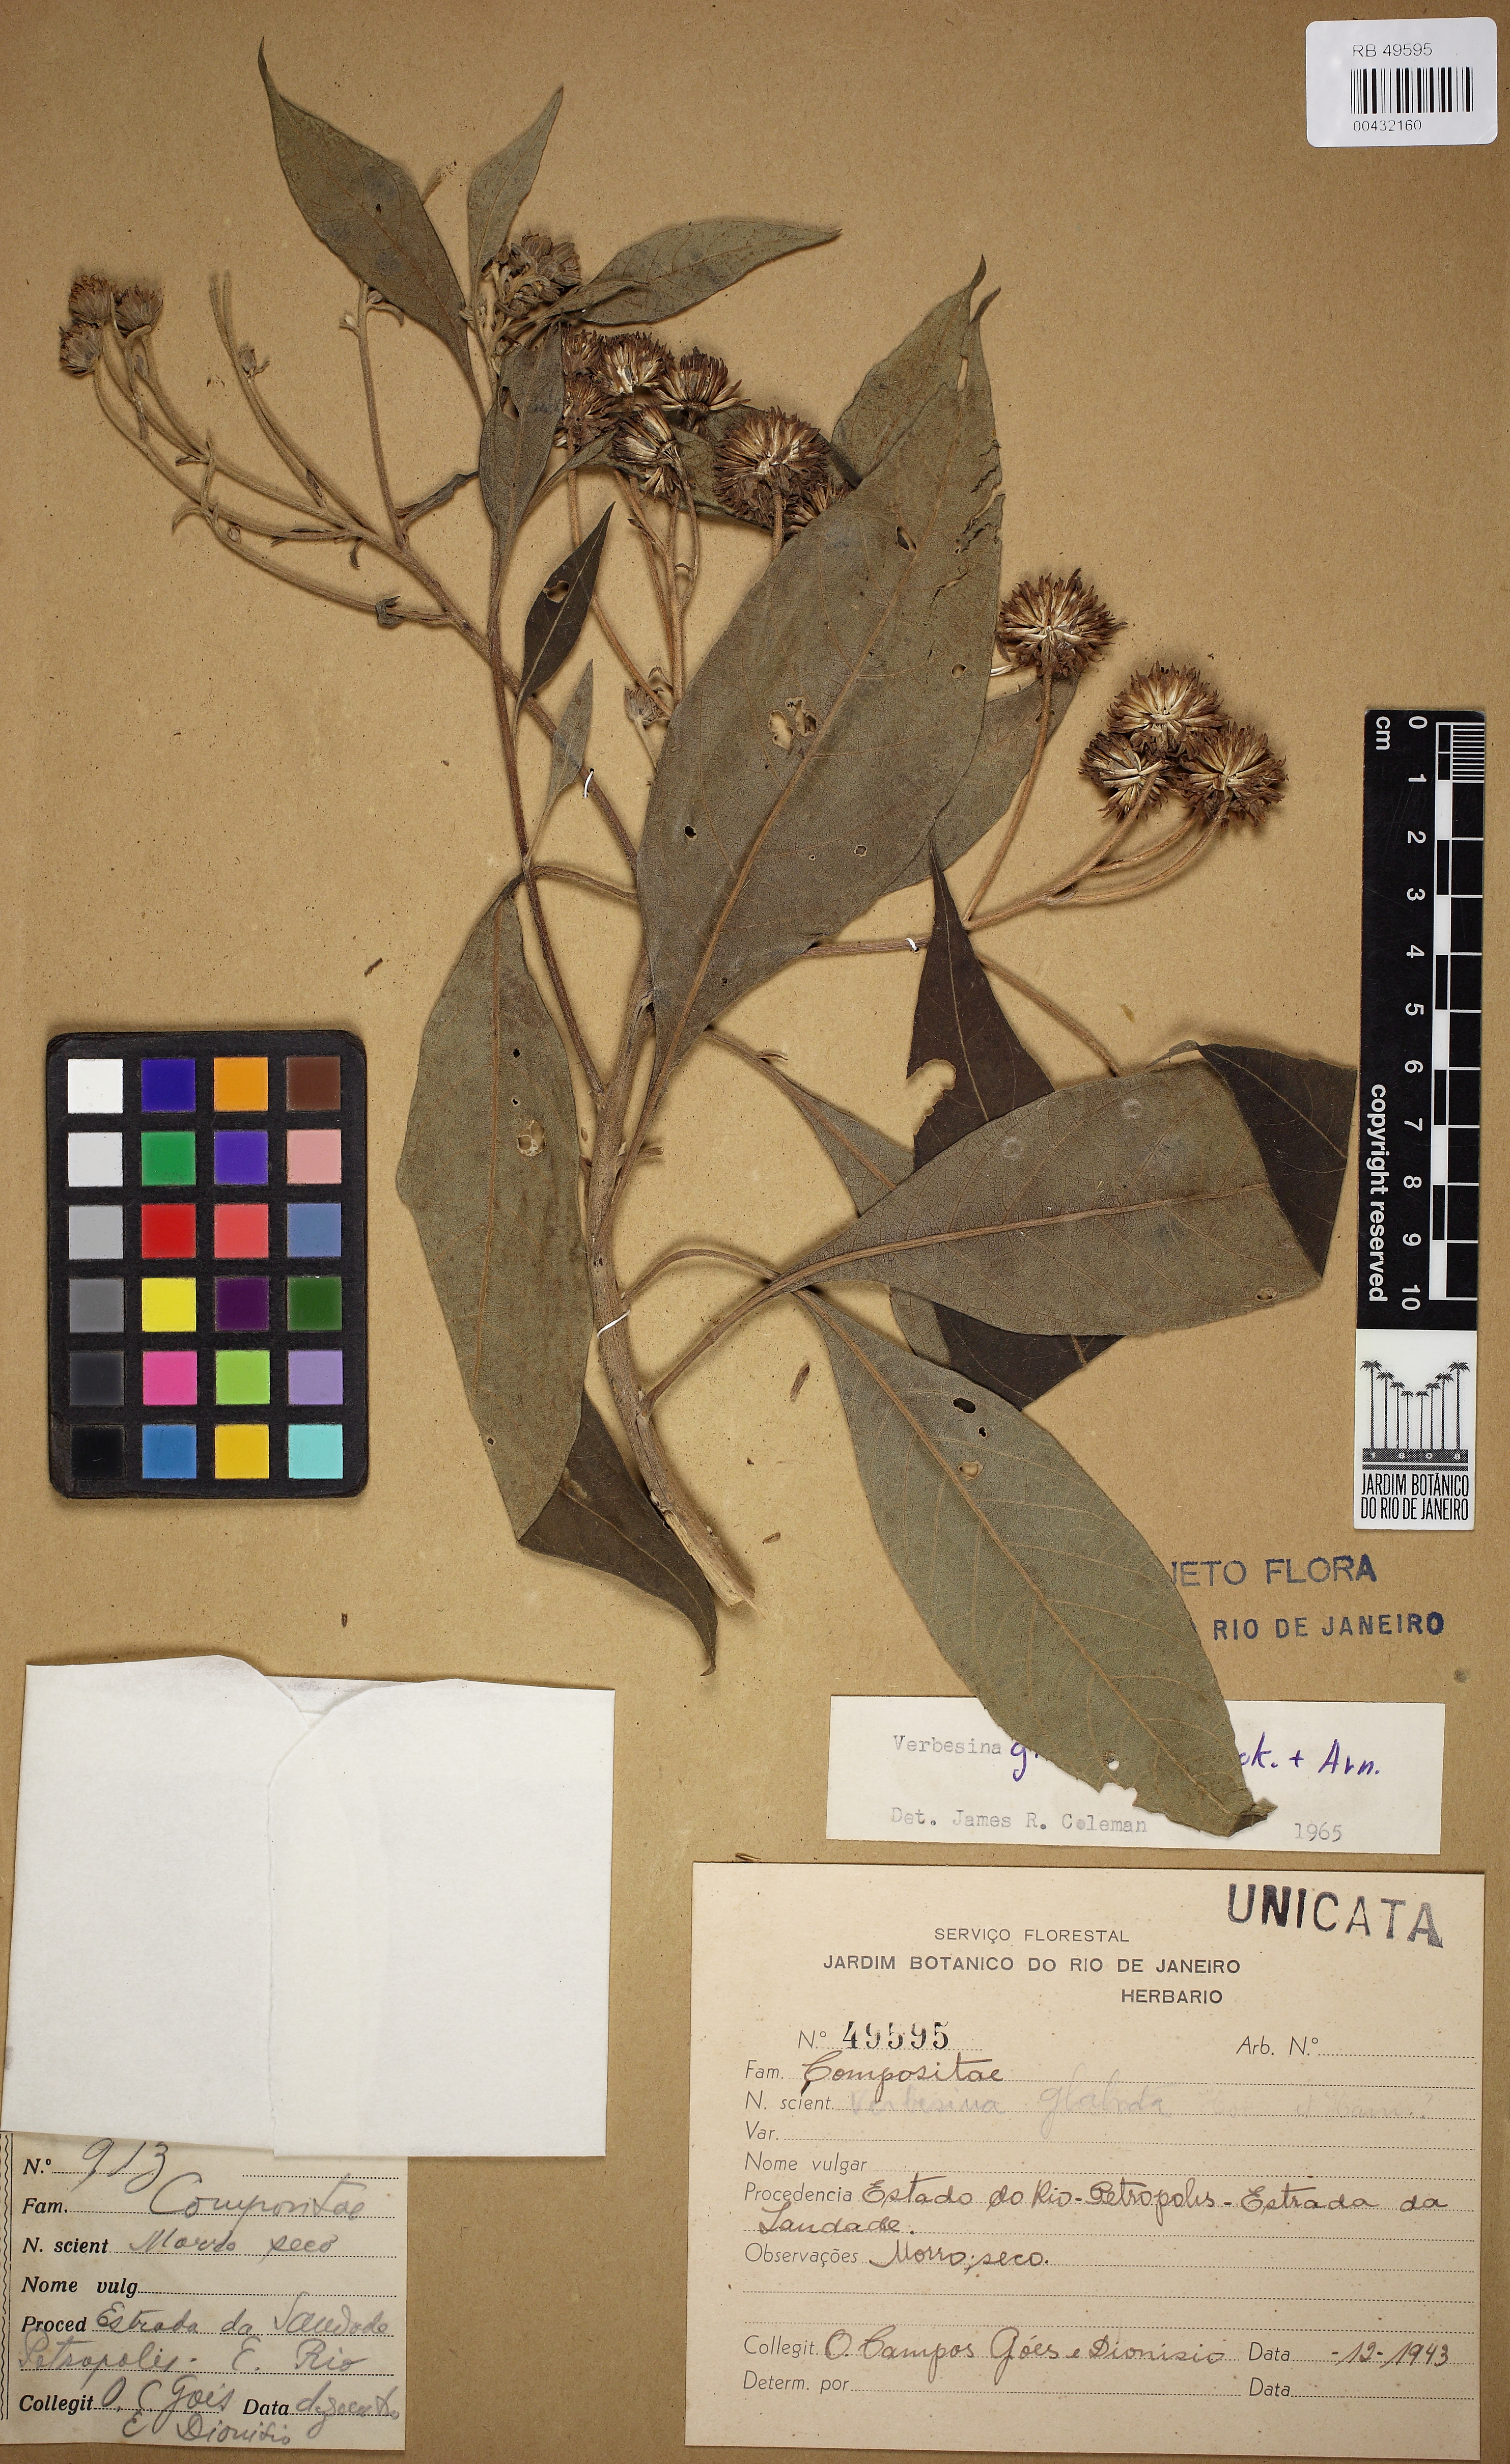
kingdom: Plantae
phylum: Tracheophyta
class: Magnoliopsida
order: Asterales
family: Asteraceae
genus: Verbesina
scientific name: Verbesina glabrata
